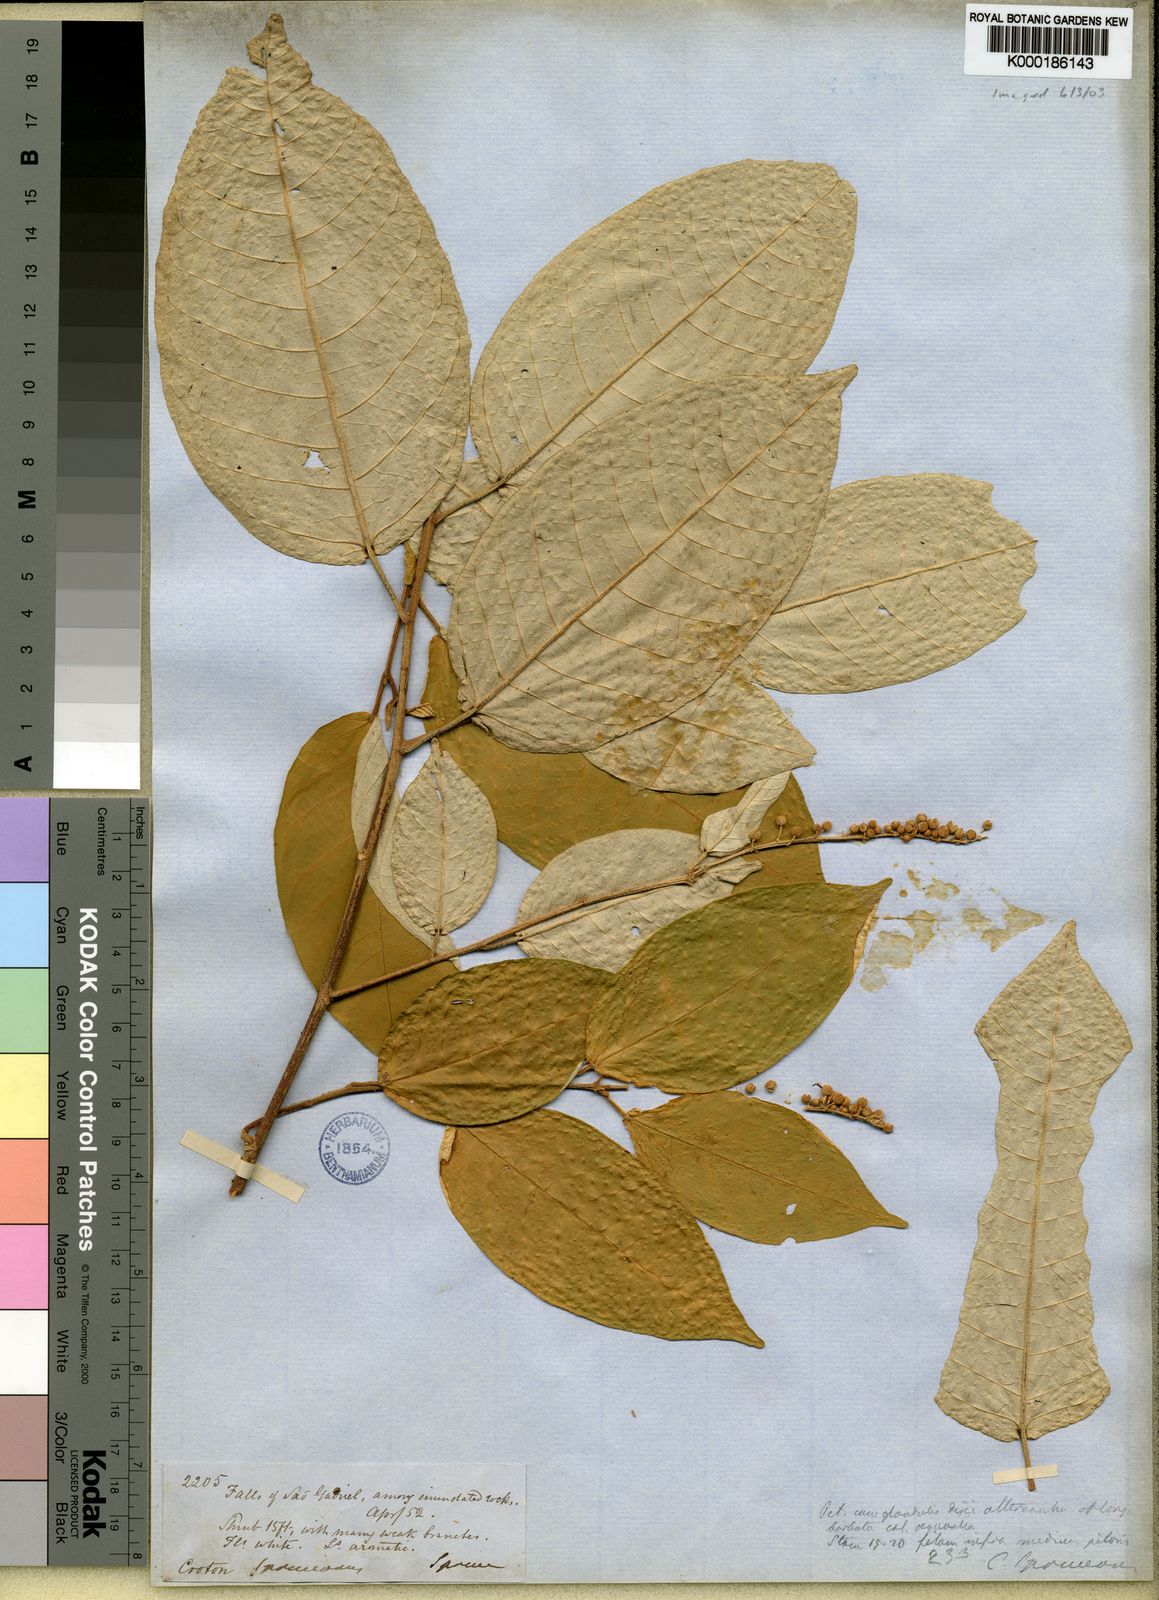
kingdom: Plantae
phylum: Tracheophyta
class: Magnoliopsida
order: Malpighiales
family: Euphorbiaceae
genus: Croton
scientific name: Croton spruceanus
